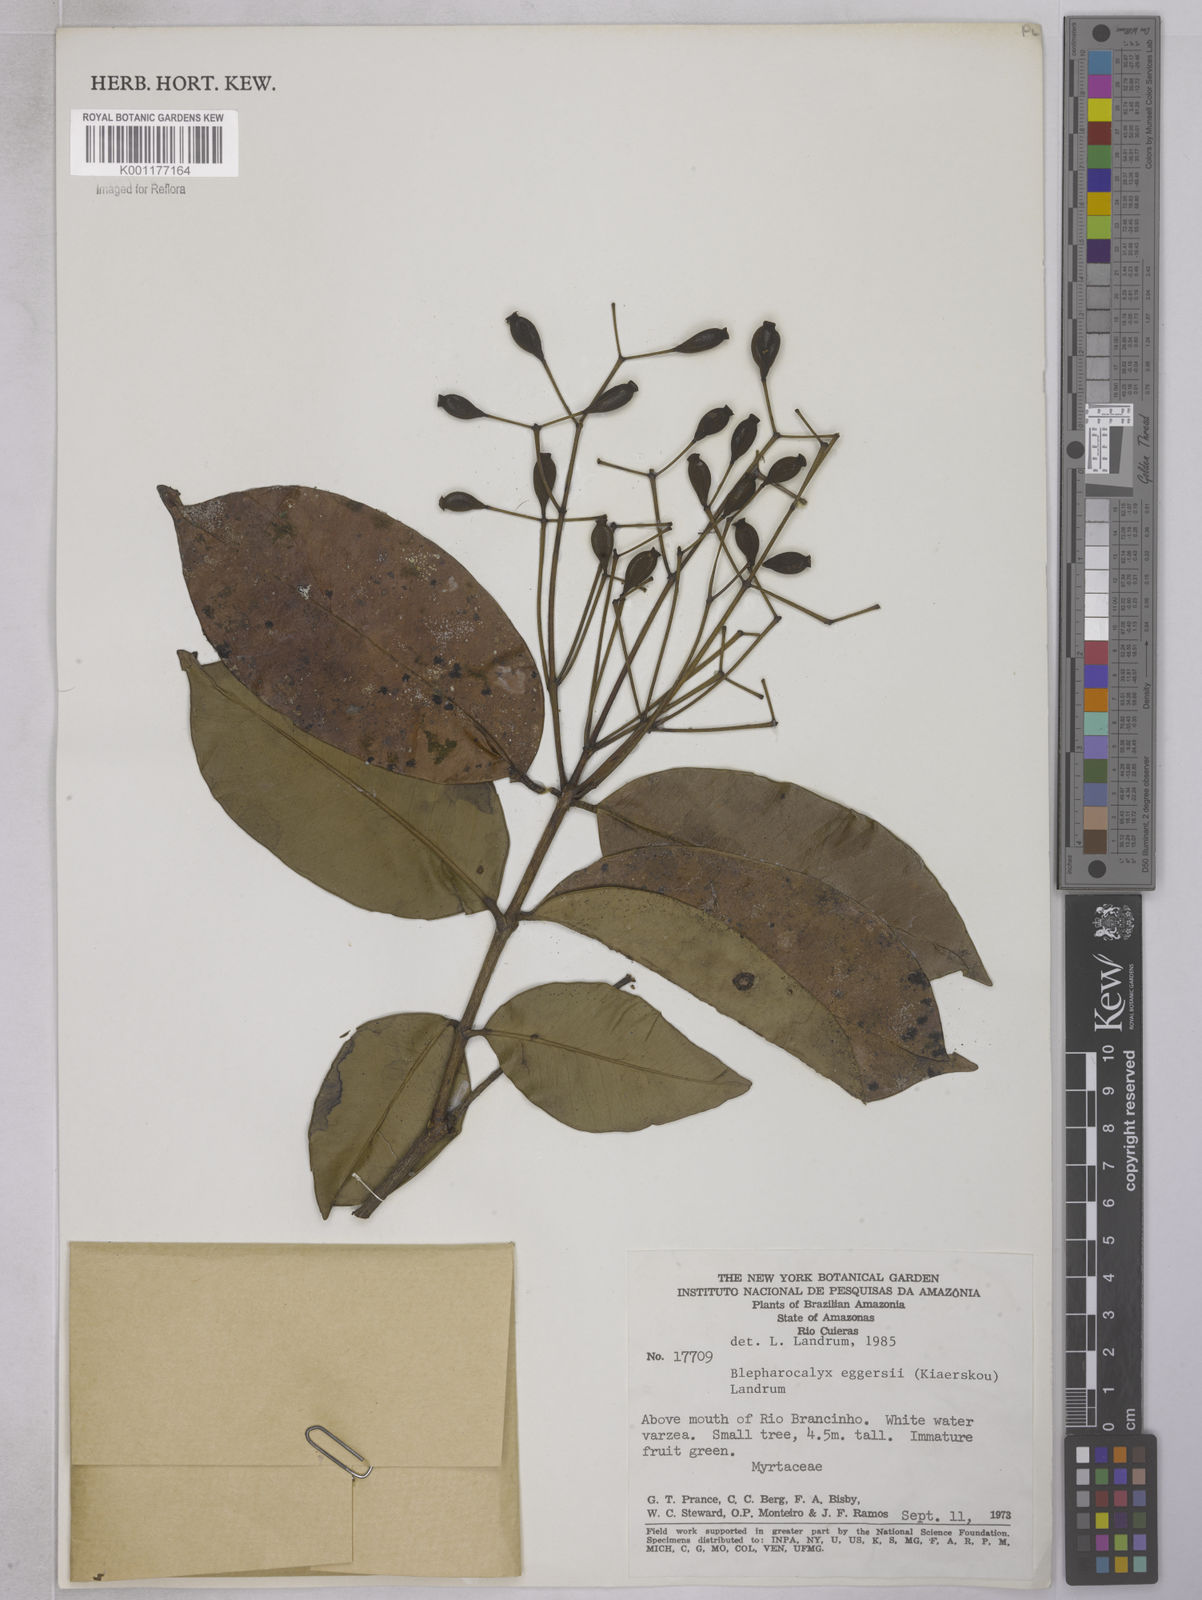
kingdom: Plantae
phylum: Tracheophyta
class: Magnoliopsida
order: Myrtales
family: Myrtaceae
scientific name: Myrtaceae
